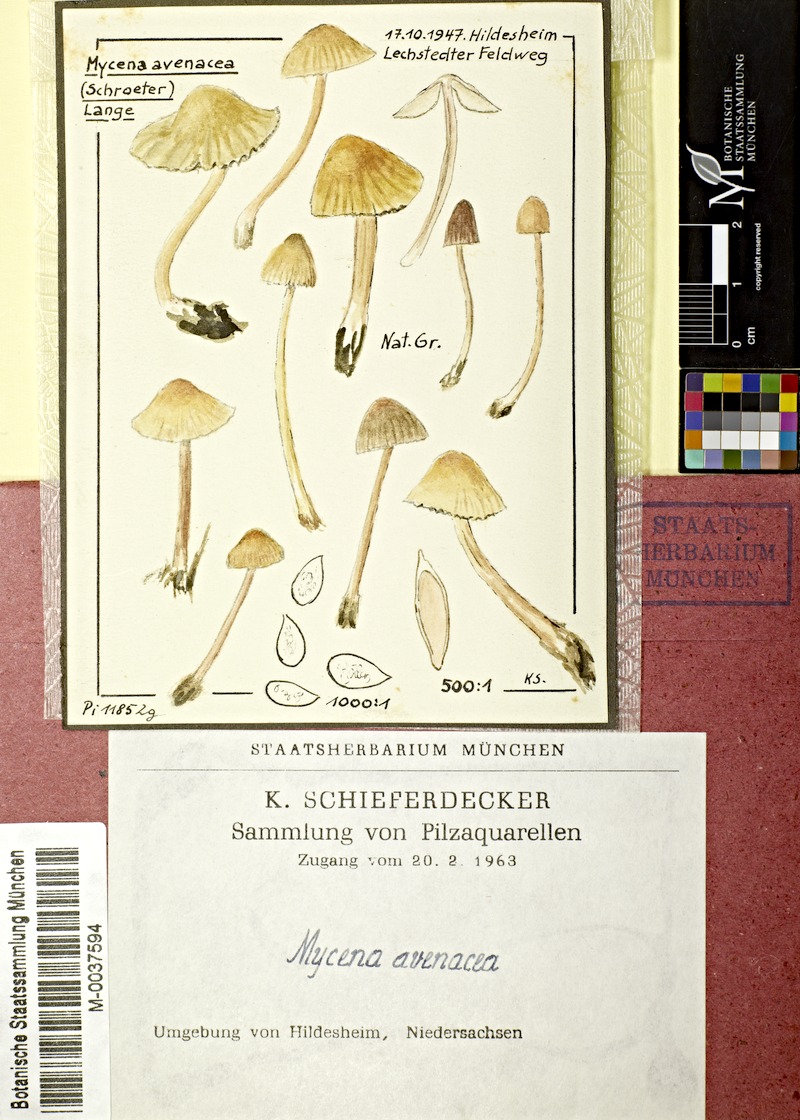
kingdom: Fungi
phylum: Basidiomycota
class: Agaricomycetes
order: Agaricales
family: Mycenaceae
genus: Mycena
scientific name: Mycena olivaceomarginata
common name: Brownedge bonnet
